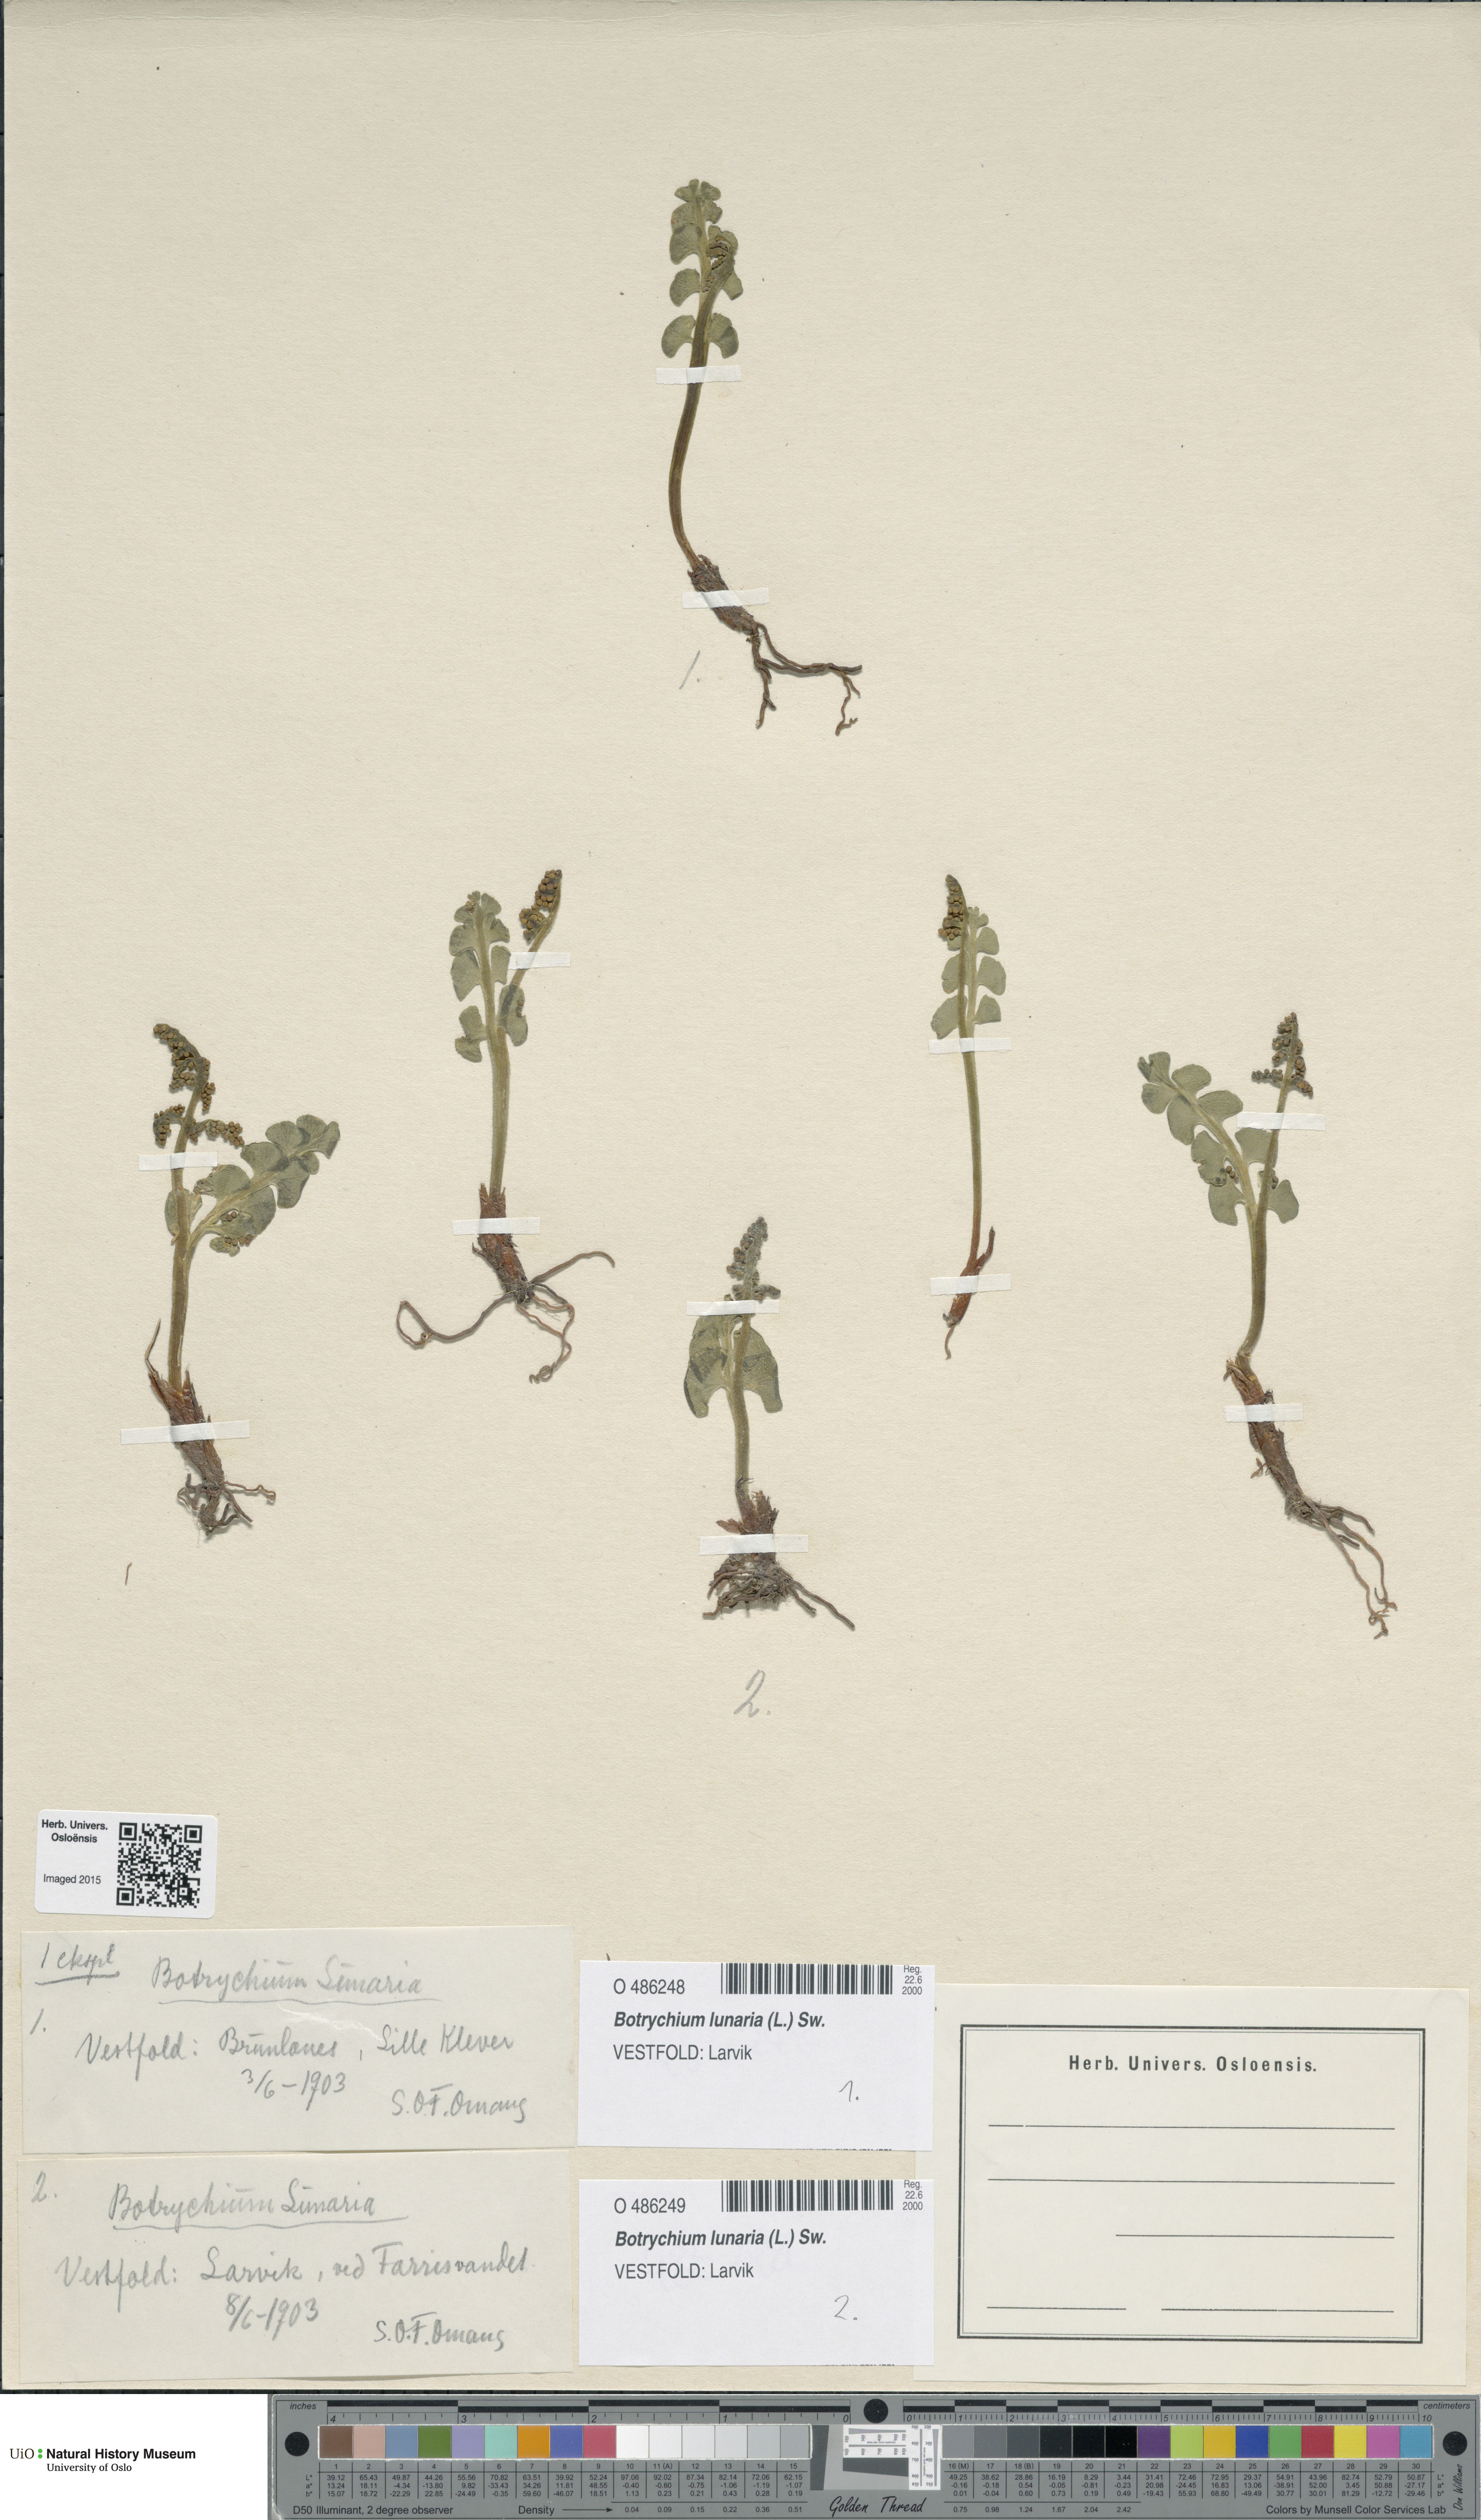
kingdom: Plantae
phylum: Tracheophyta
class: Polypodiopsida
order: Ophioglossales
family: Ophioglossaceae
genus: Botrychium
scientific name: Botrychium lunaria
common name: Moonwort
